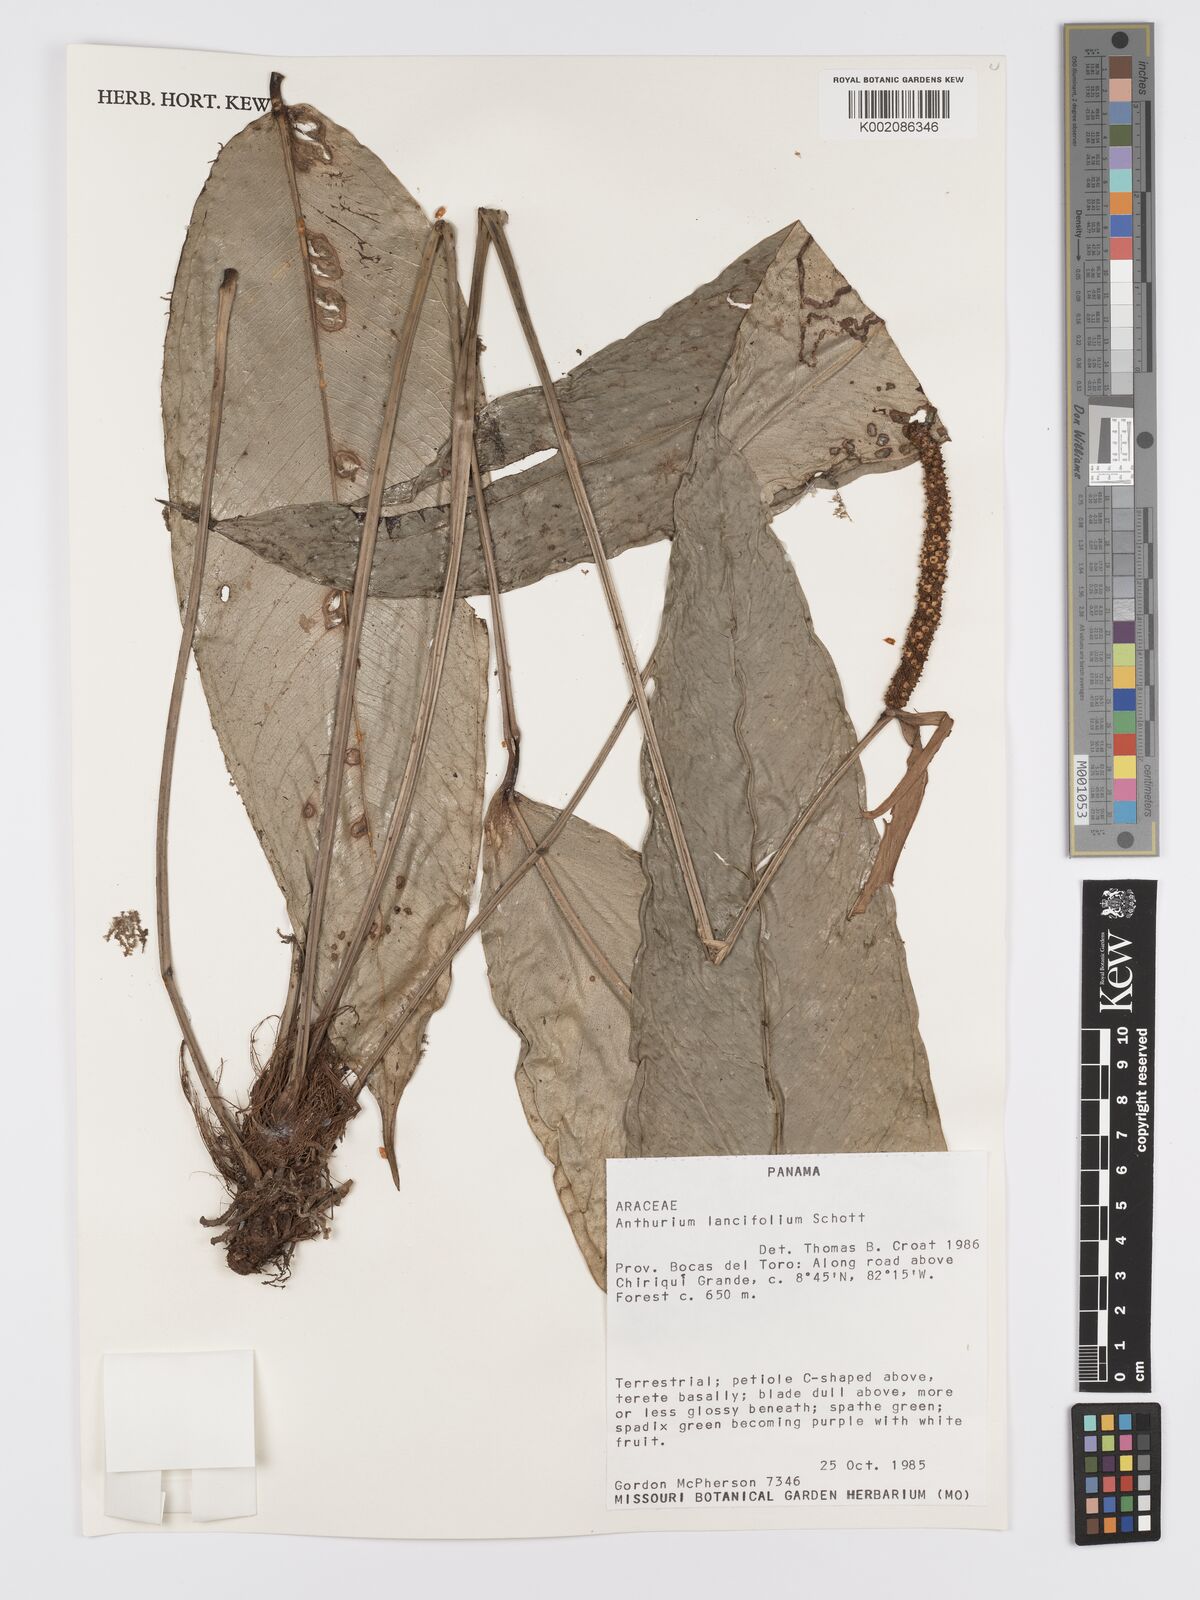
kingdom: Plantae
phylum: Tracheophyta
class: Liliopsida
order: Alismatales
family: Araceae
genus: Anthurium
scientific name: Anthurium lancifolium
